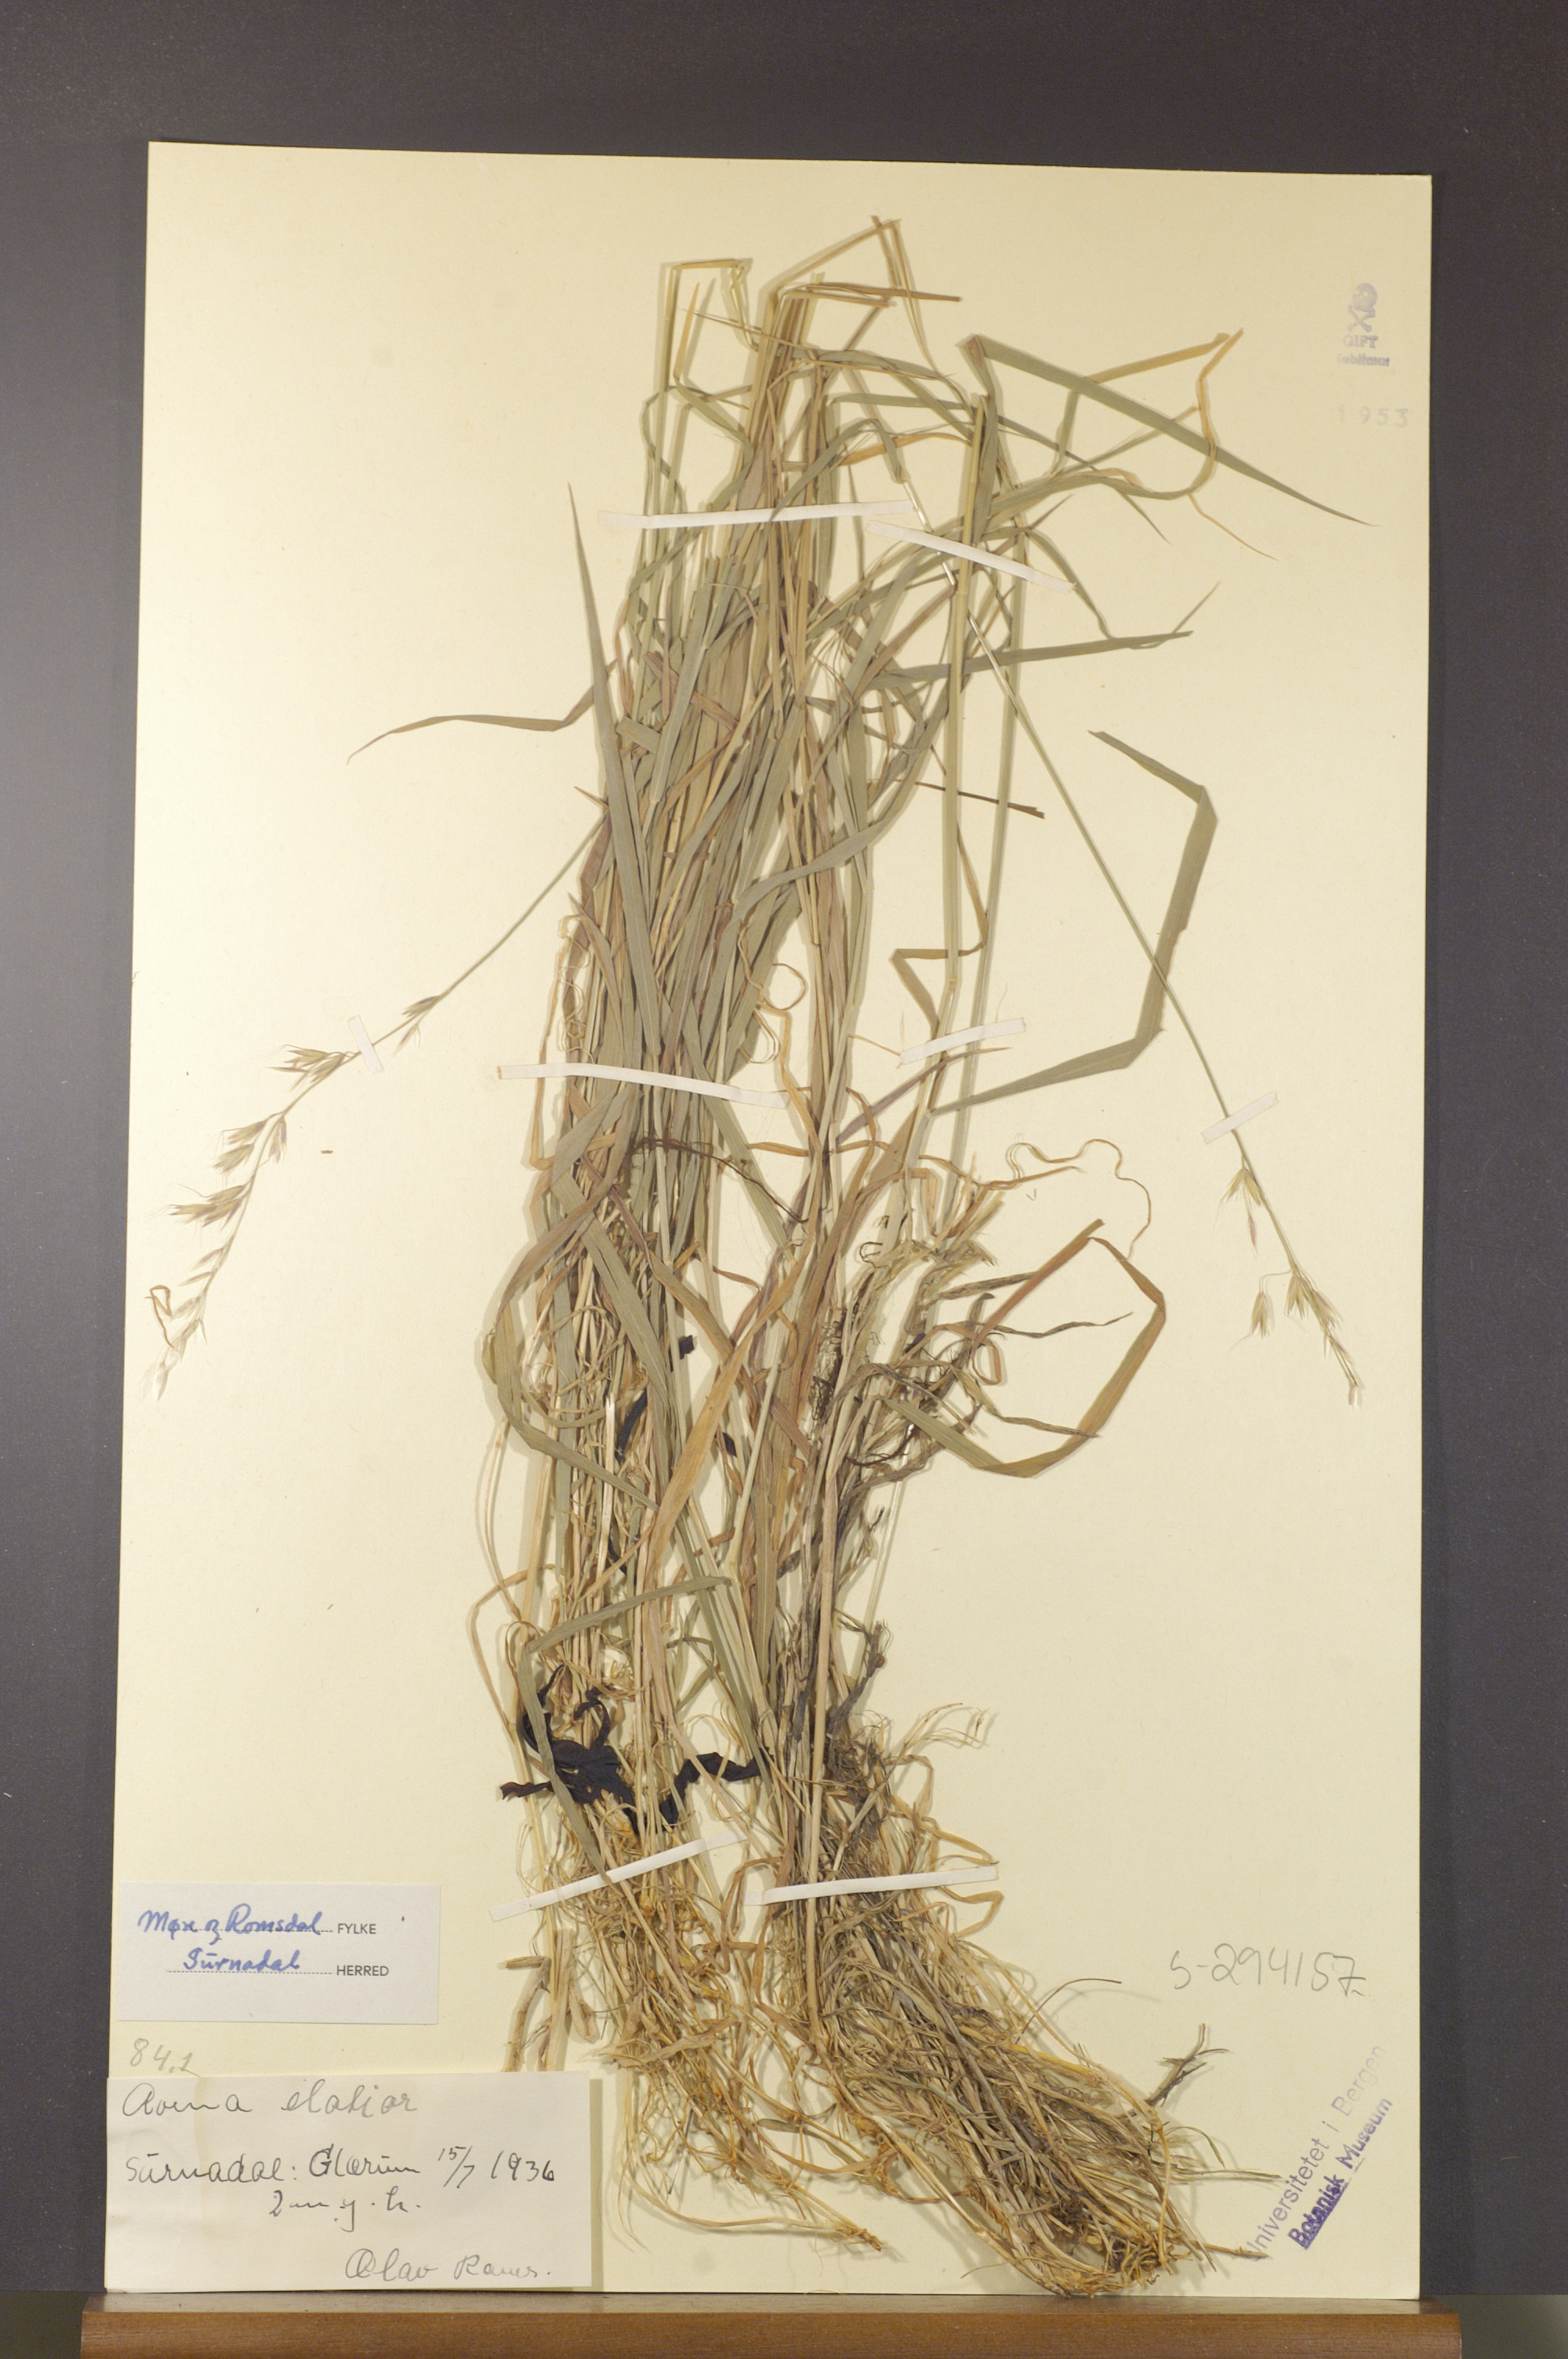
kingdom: Plantae
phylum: Tracheophyta
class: Liliopsida
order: Poales
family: Poaceae
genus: Arrhenatherum
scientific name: Arrhenatherum elatius
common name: Tall oatgrass
